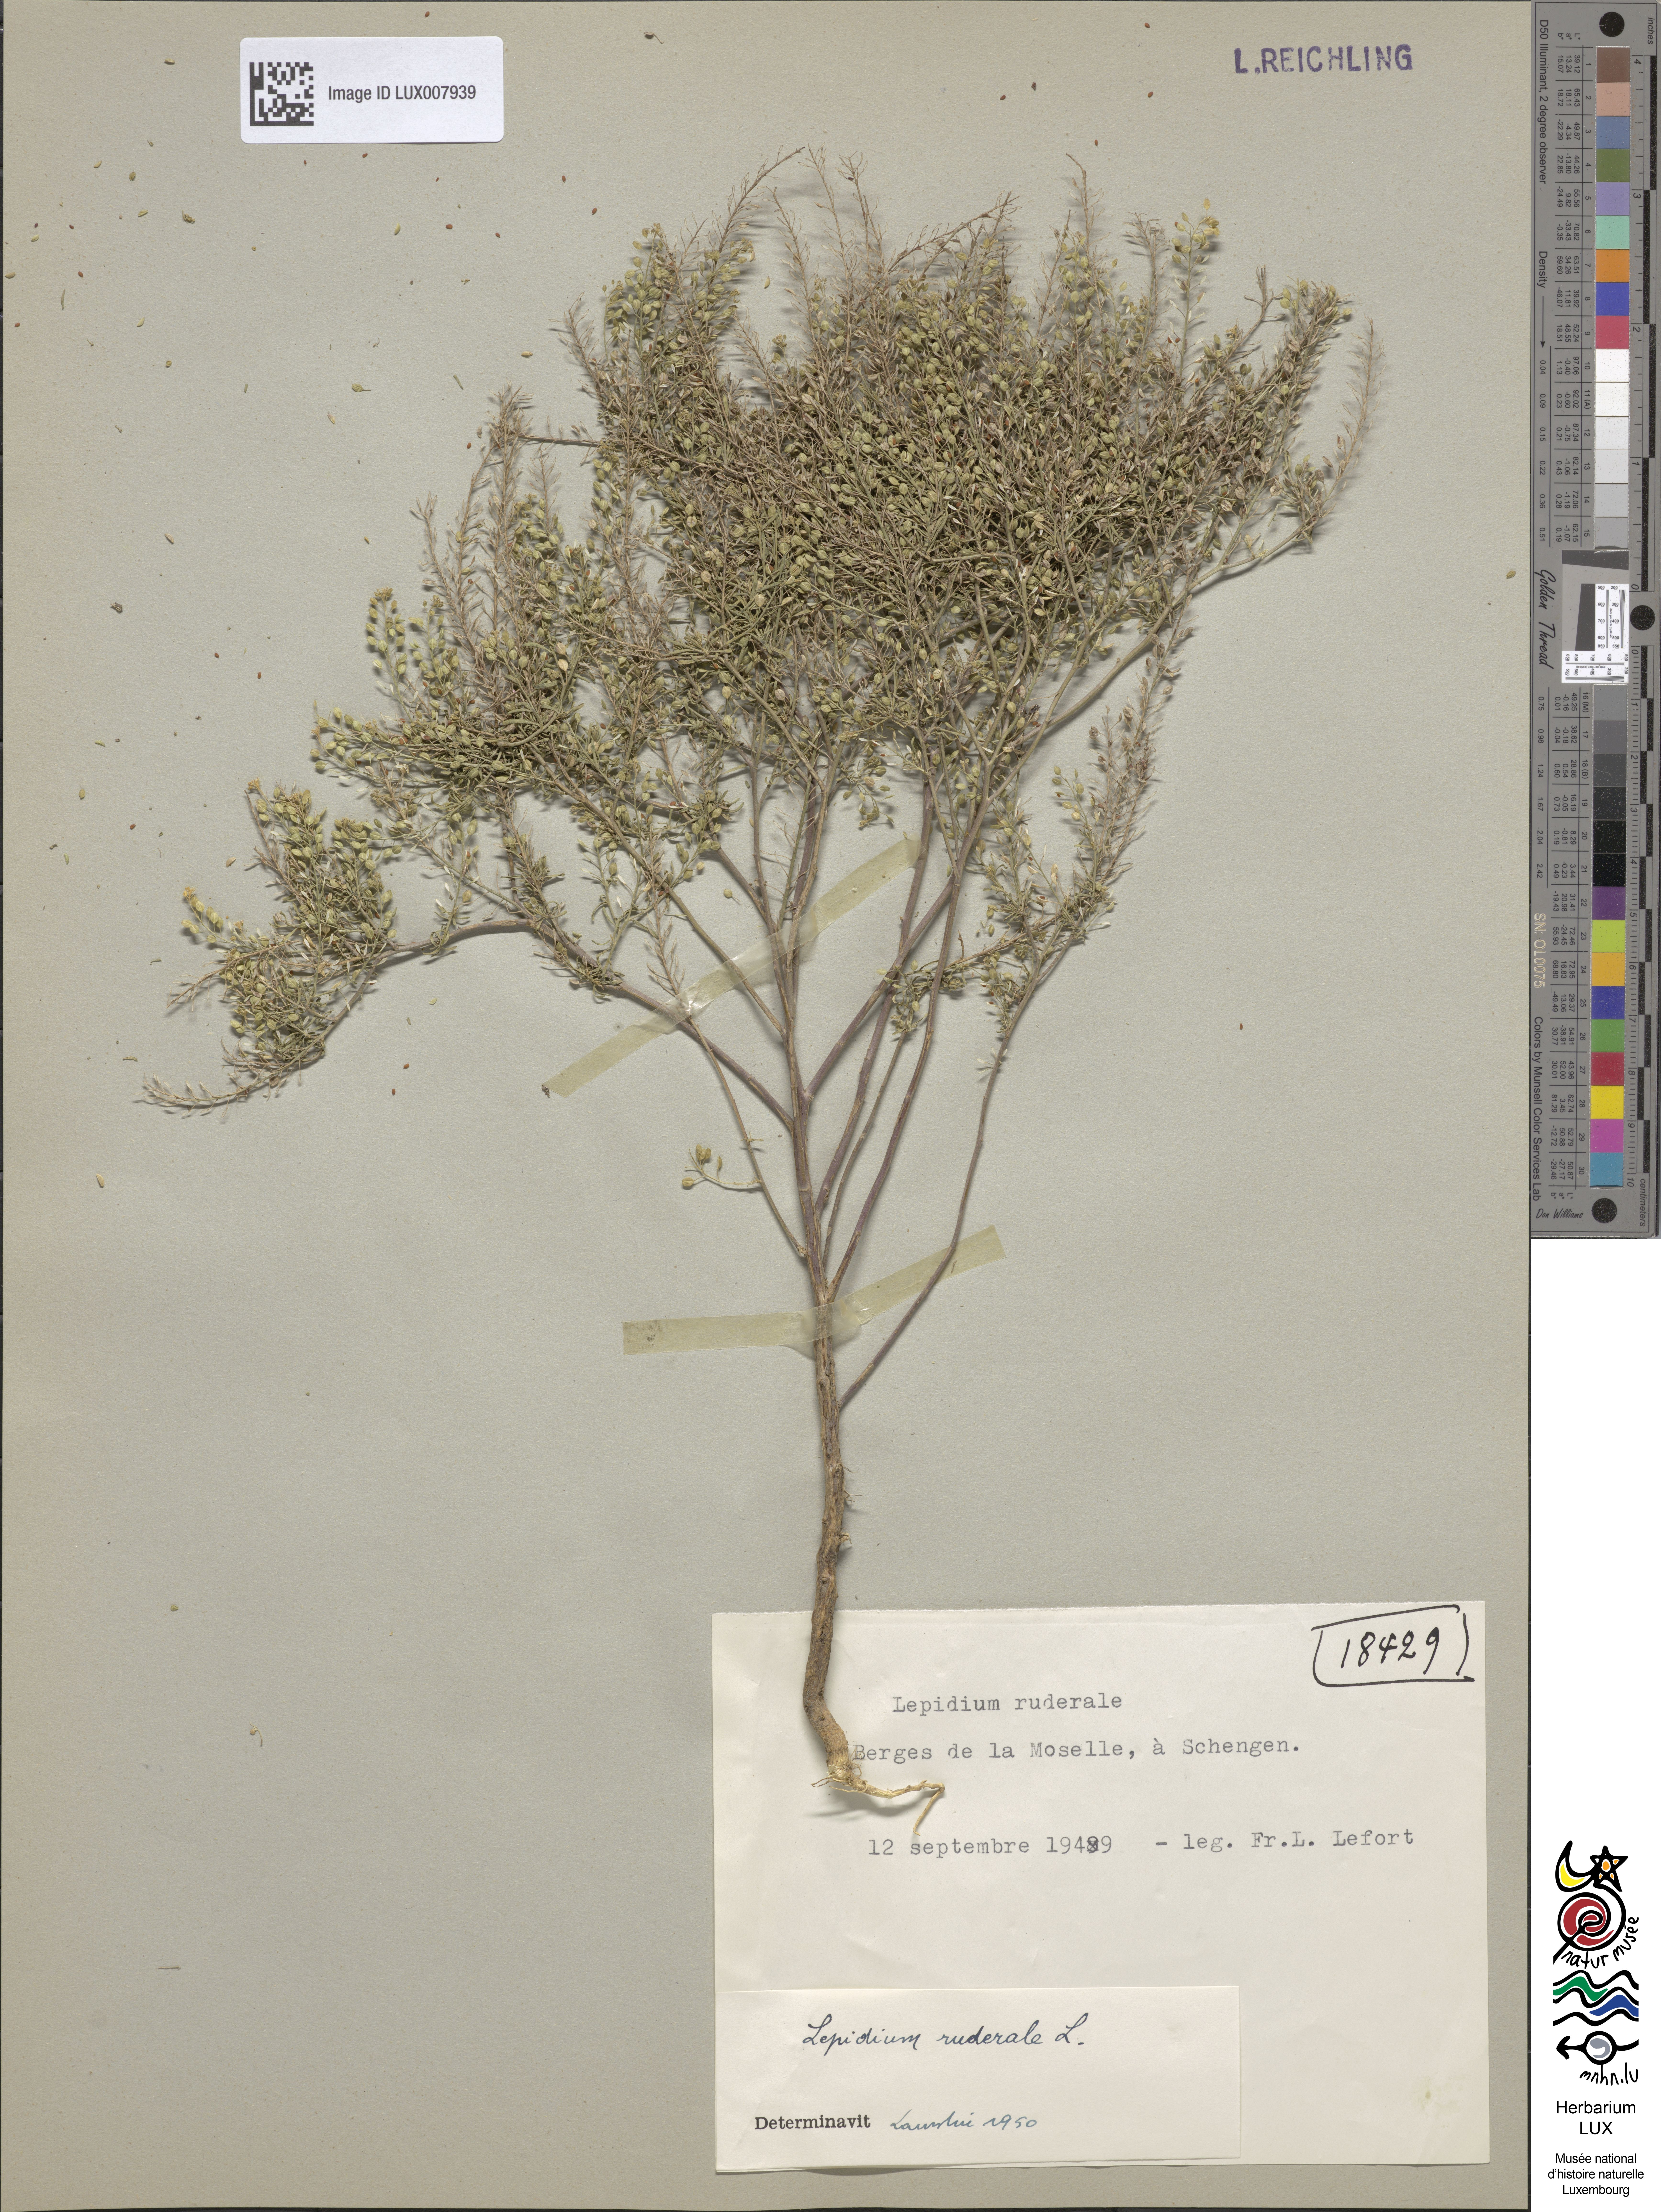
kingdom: Plantae
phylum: Tracheophyta
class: Magnoliopsida
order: Brassicales
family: Brassicaceae
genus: Lepidium
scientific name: Lepidium ruderale
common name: Narrow-leaved pepperwort
